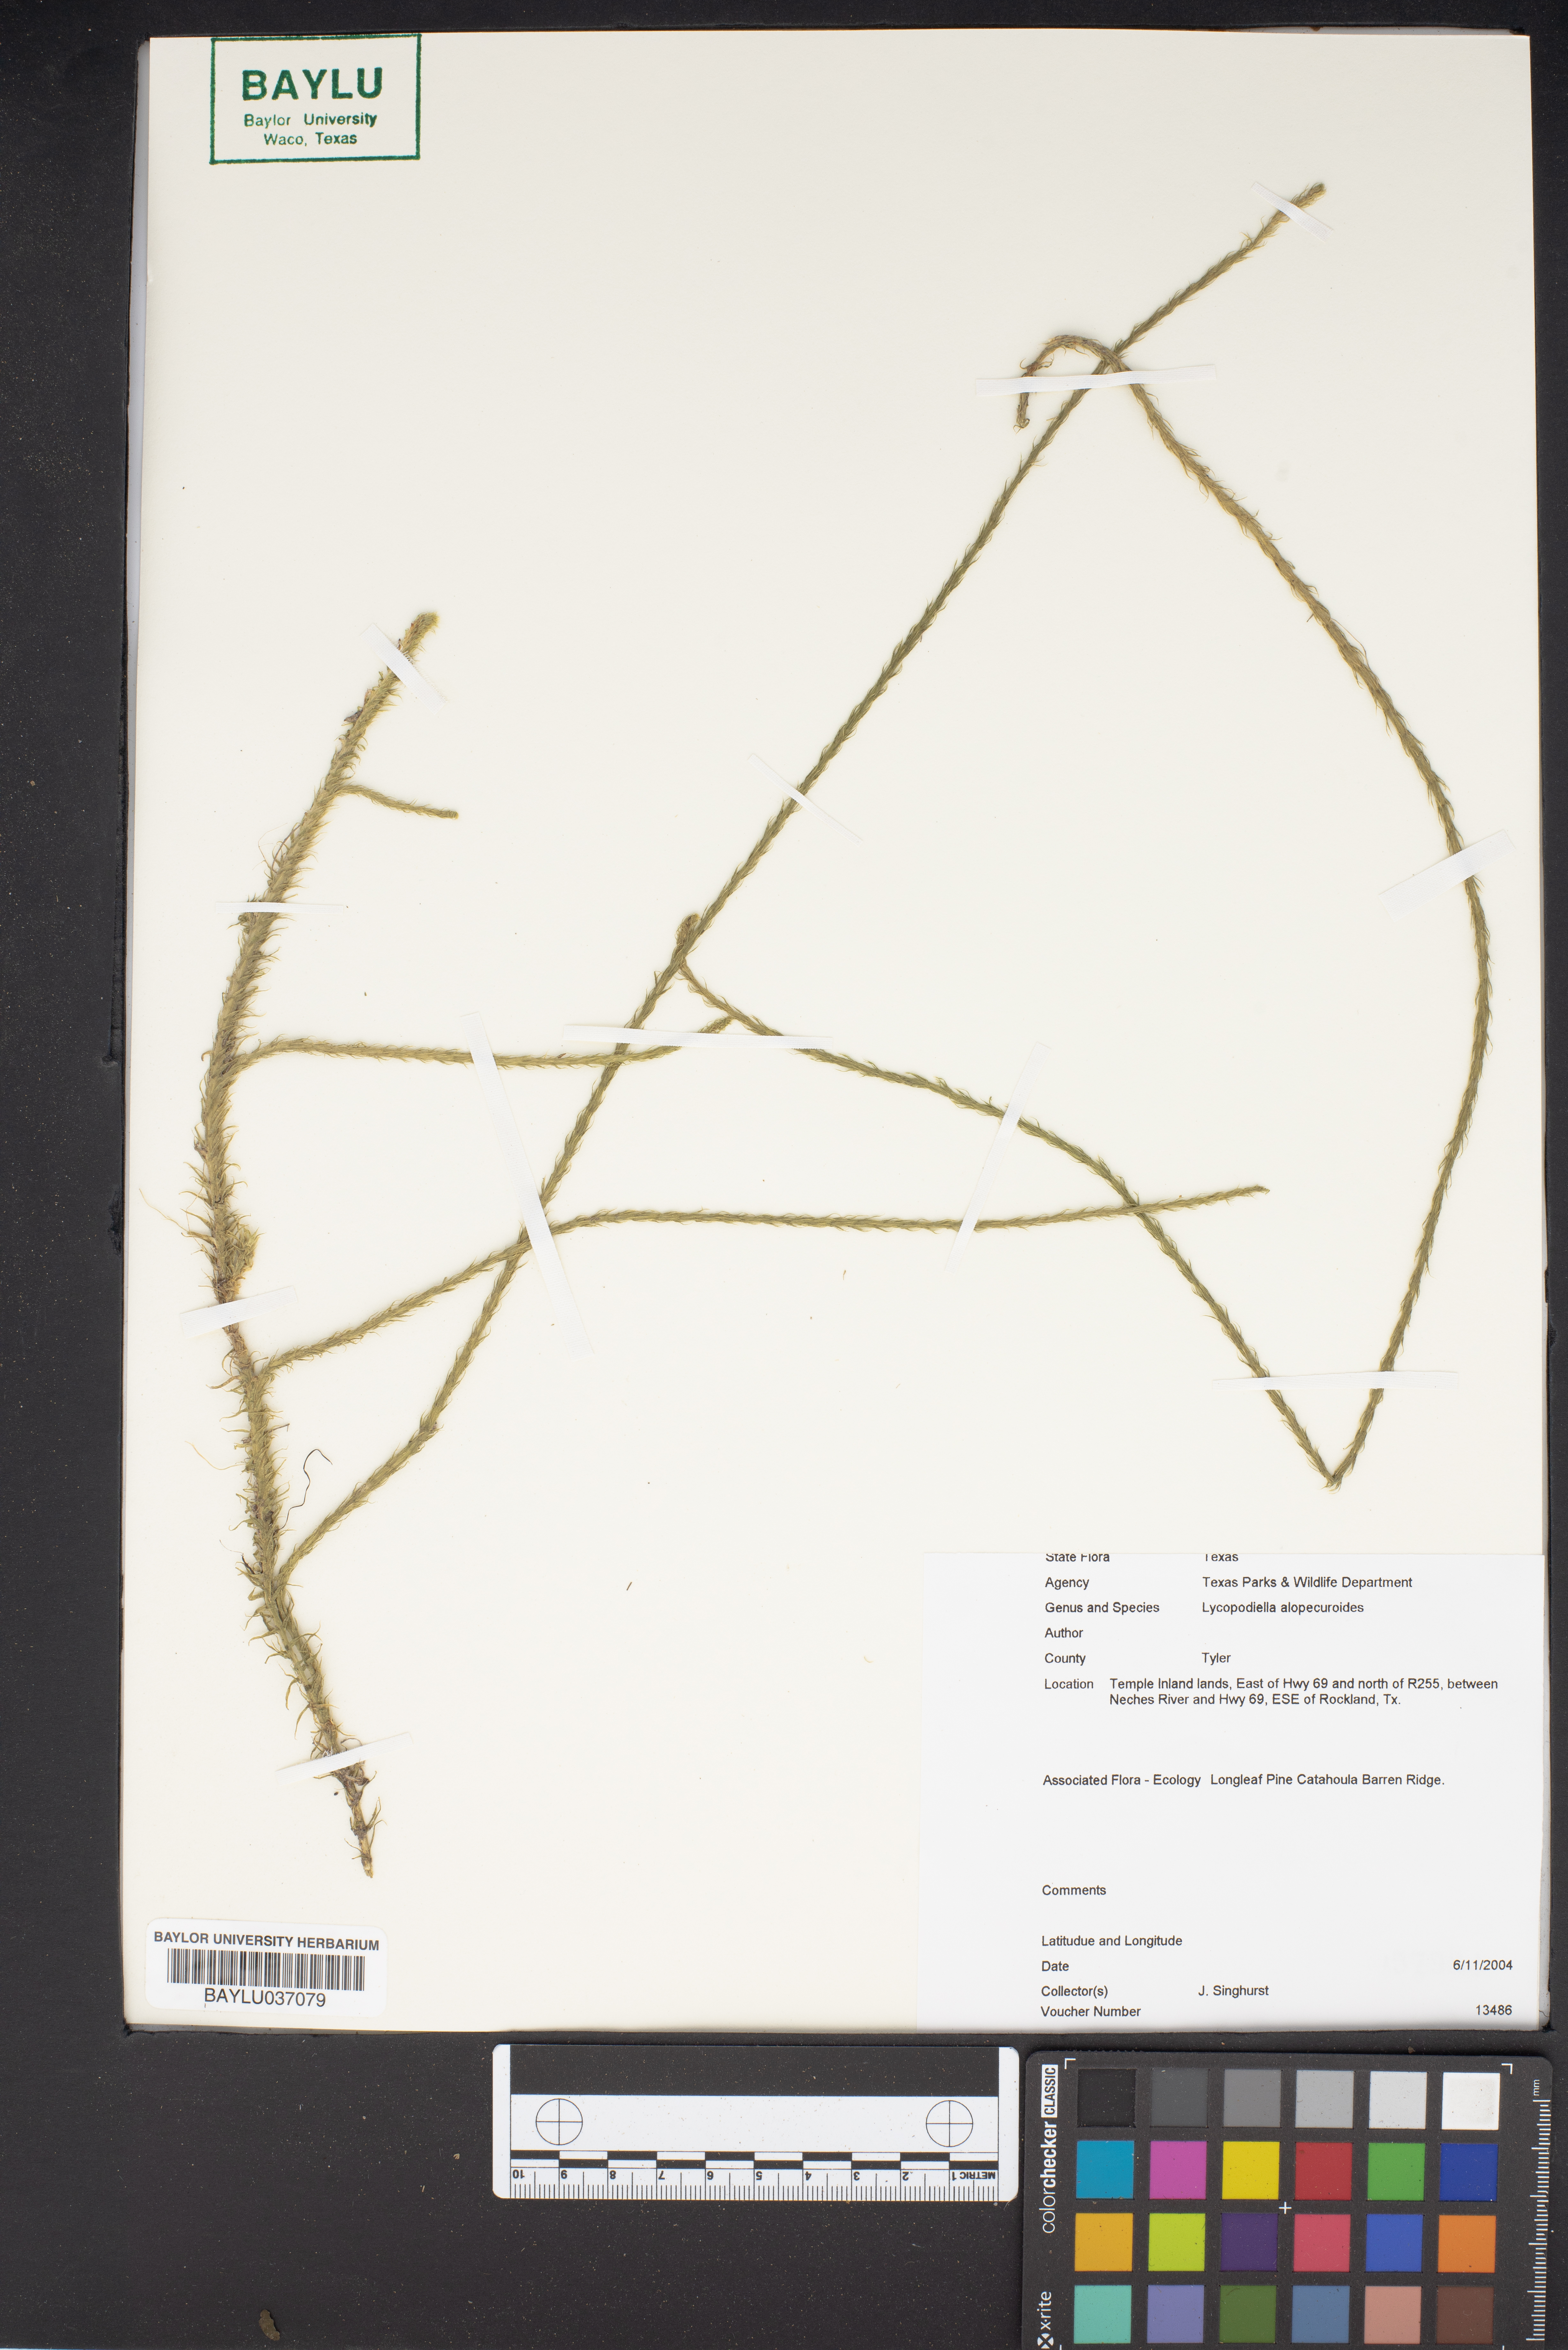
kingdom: Plantae
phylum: Tracheophyta
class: Lycopodiopsida
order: Lycopodiales
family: Lycopodiaceae
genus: Lycopodiella
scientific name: Lycopodiella longipes
